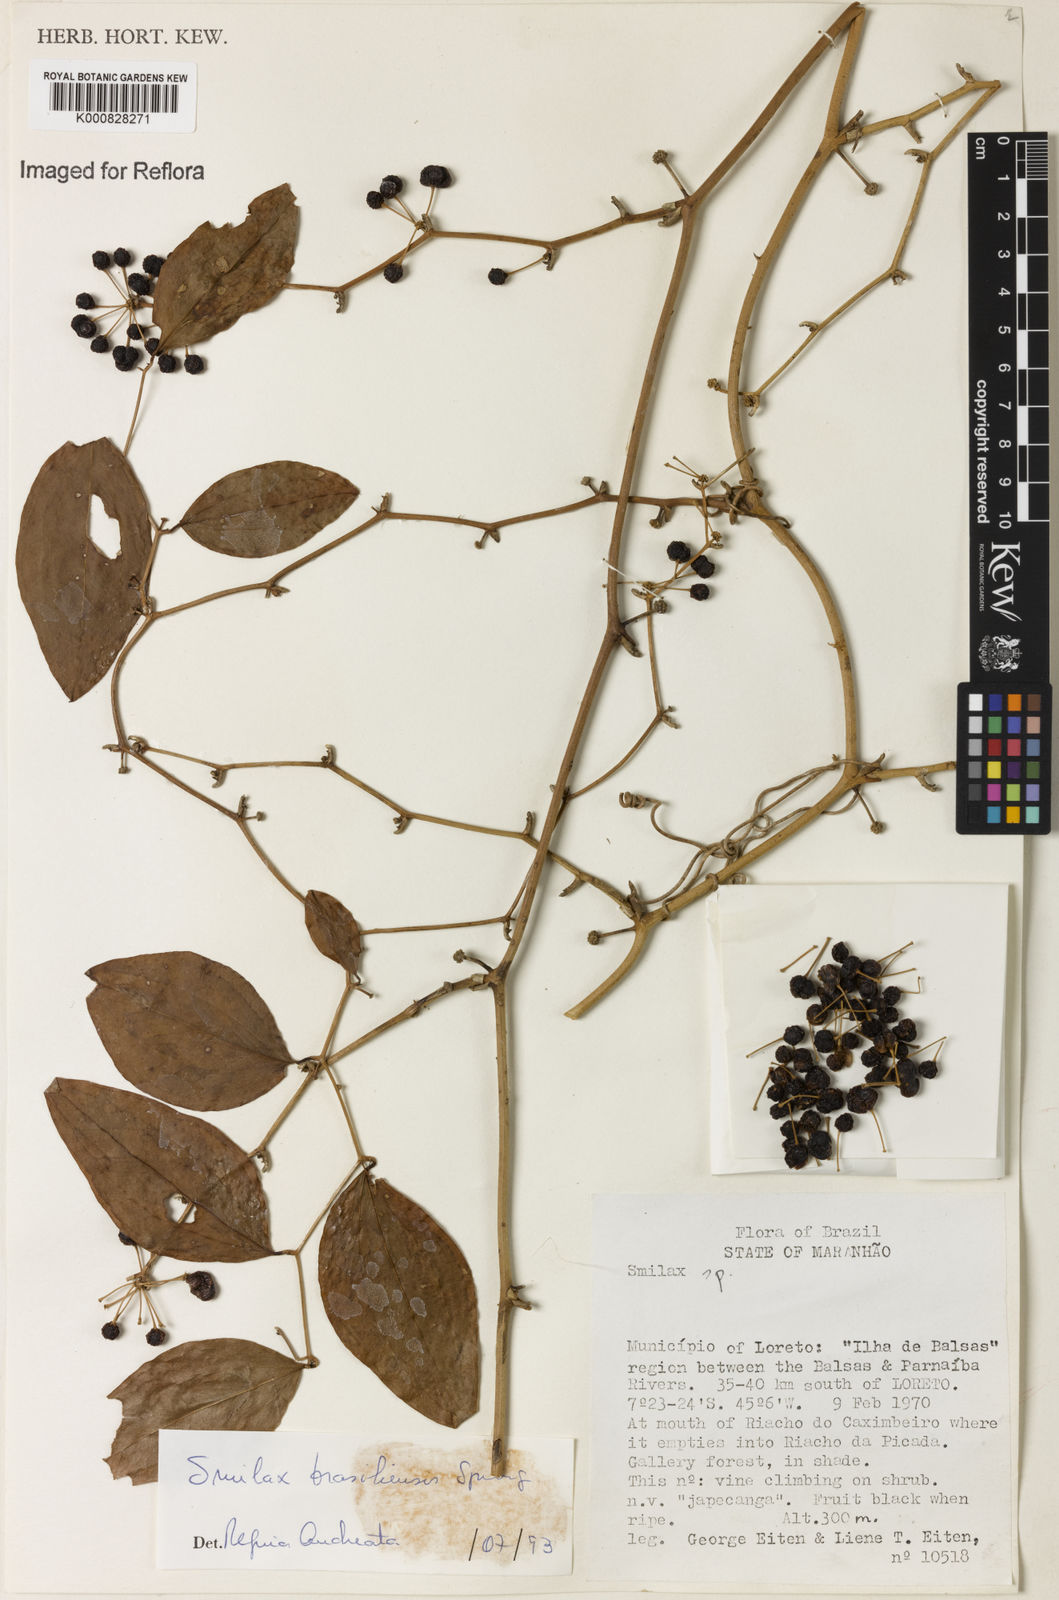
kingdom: Plantae
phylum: Tracheophyta
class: Liliopsida
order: Liliales
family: Smilacaceae
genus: Smilax
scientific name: Smilax brasiliensis
